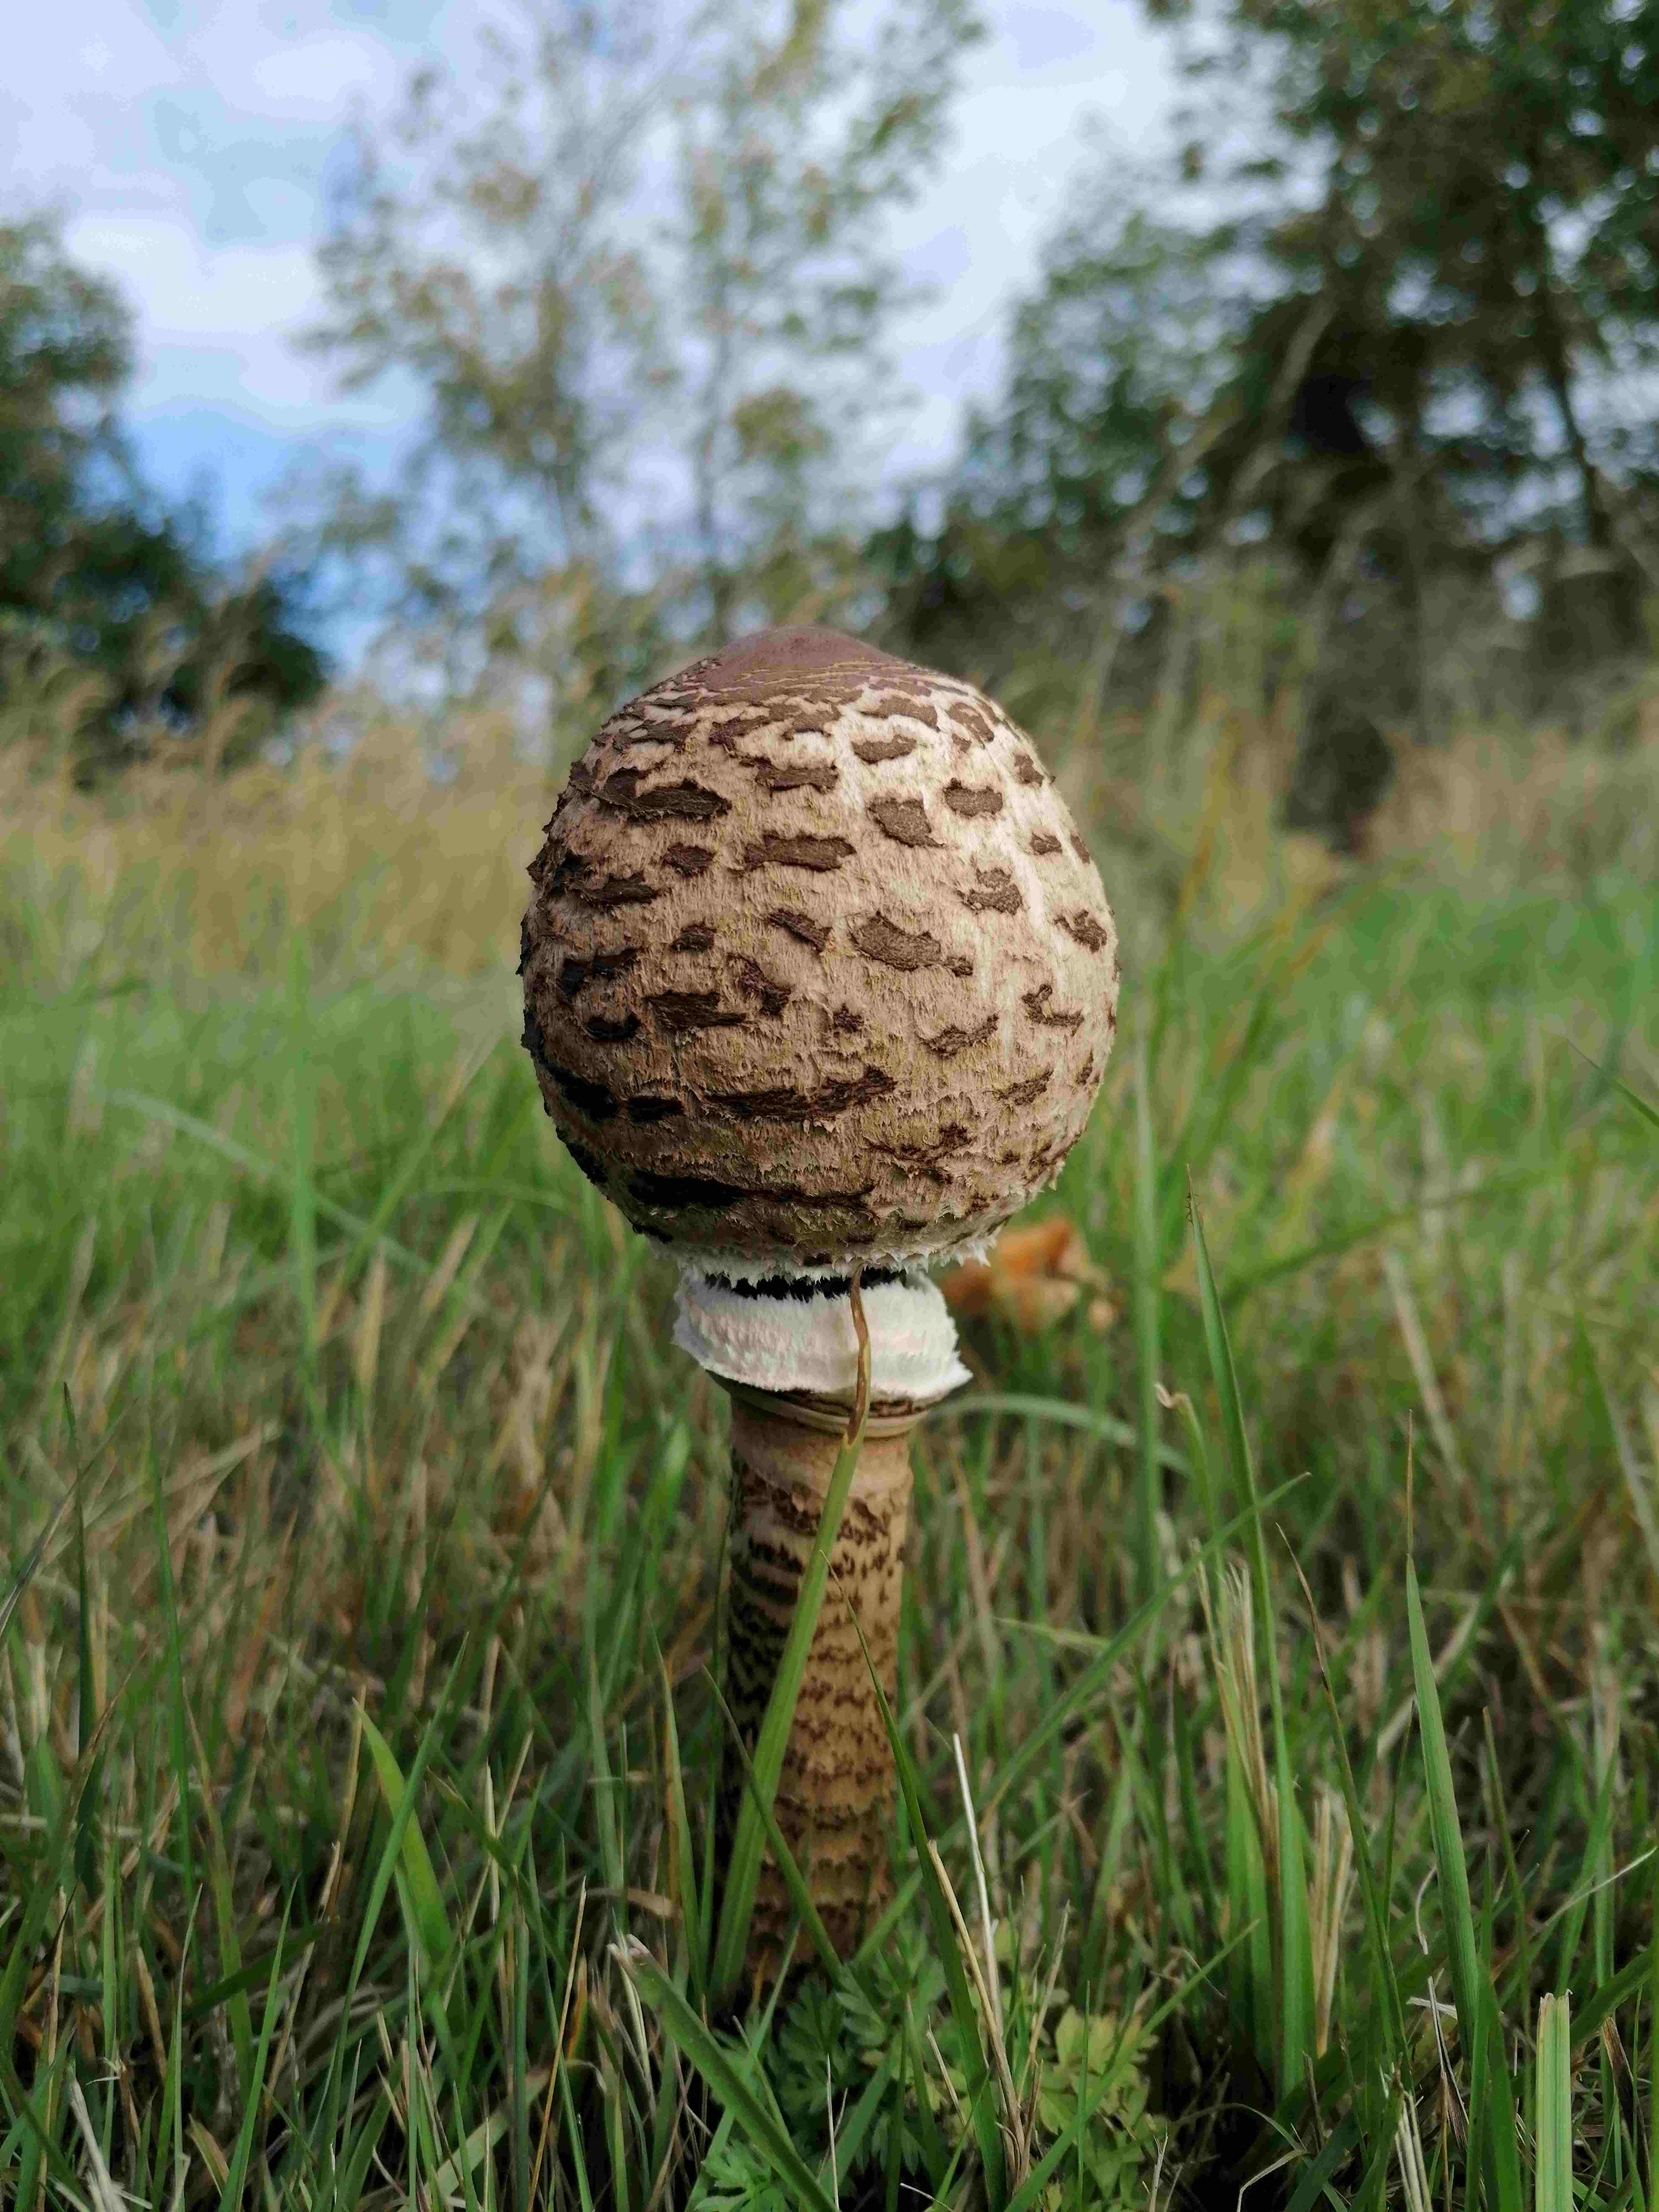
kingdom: Fungi
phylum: Basidiomycota
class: Agaricomycetes
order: Agaricales
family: Agaricaceae
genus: Macrolepiota
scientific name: Macrolepiota procera
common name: stor kæmpeparasolhat
